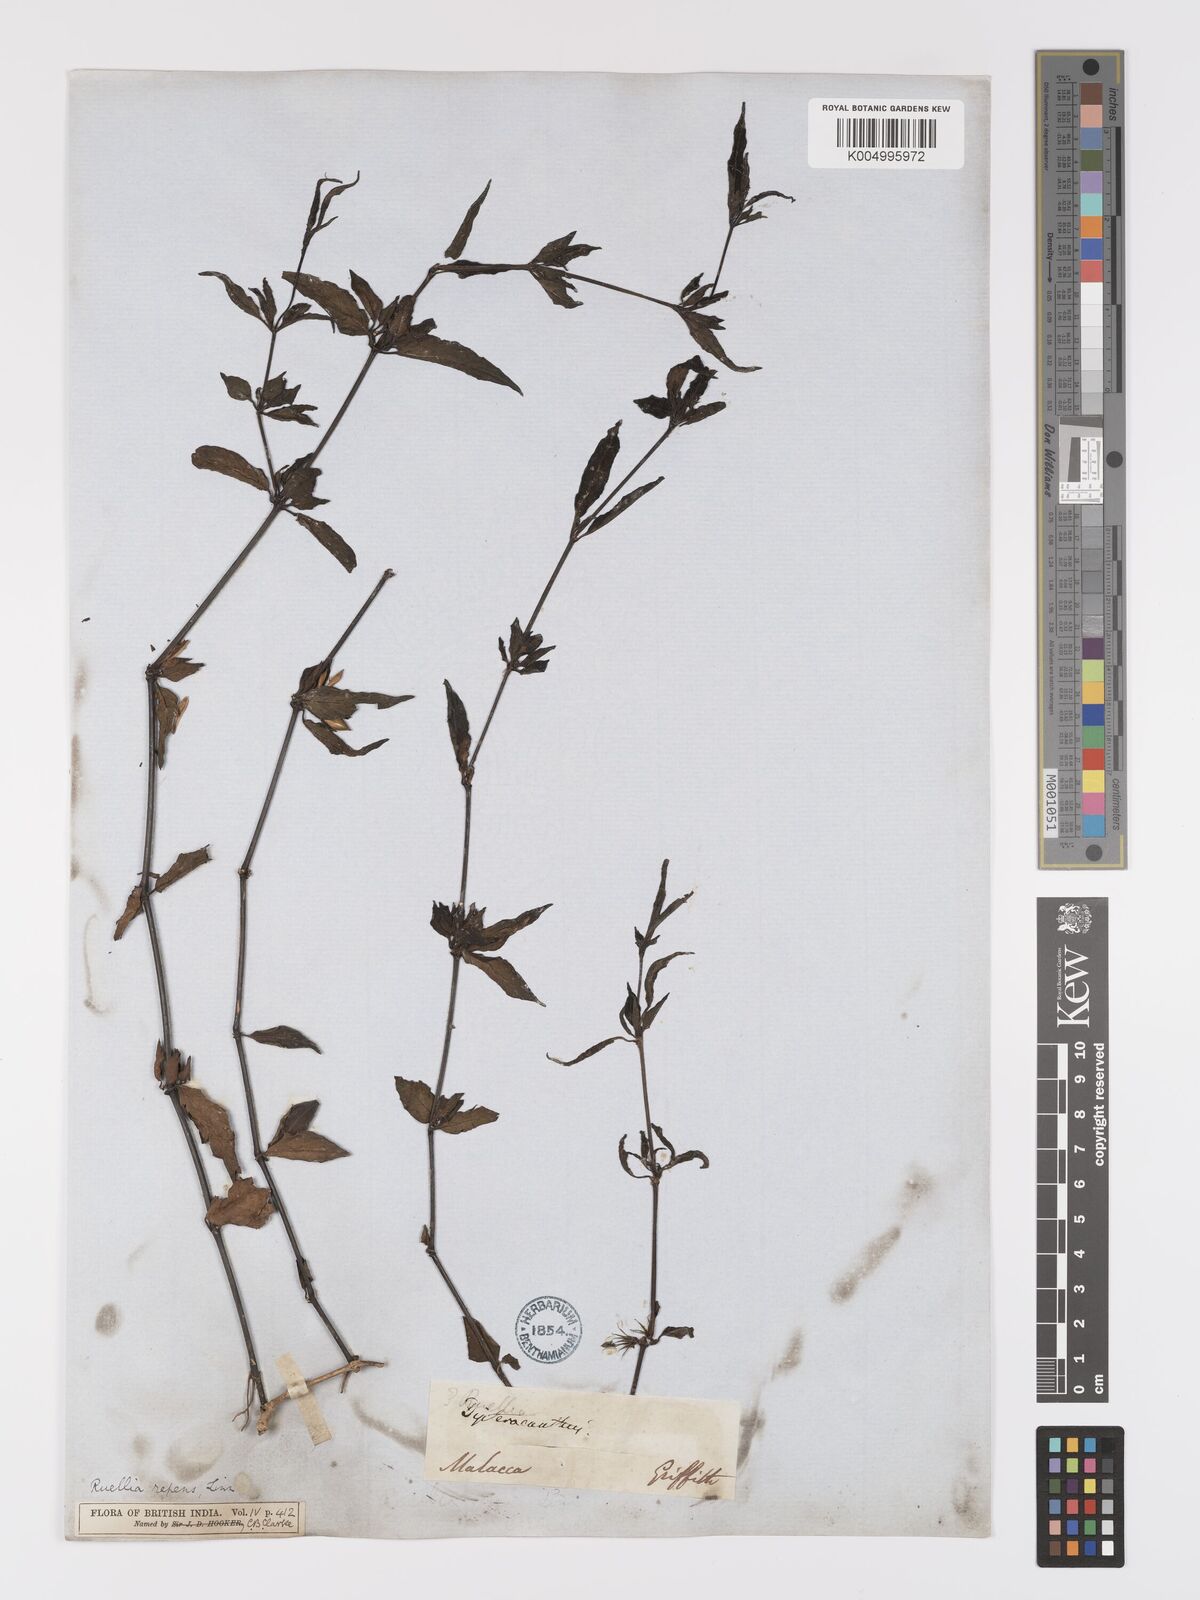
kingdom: Plantae
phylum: Tracheophyta
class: Magnoliopsida
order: Lamiales
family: Acanthaceae
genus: Ruellia
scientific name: Ruellia
